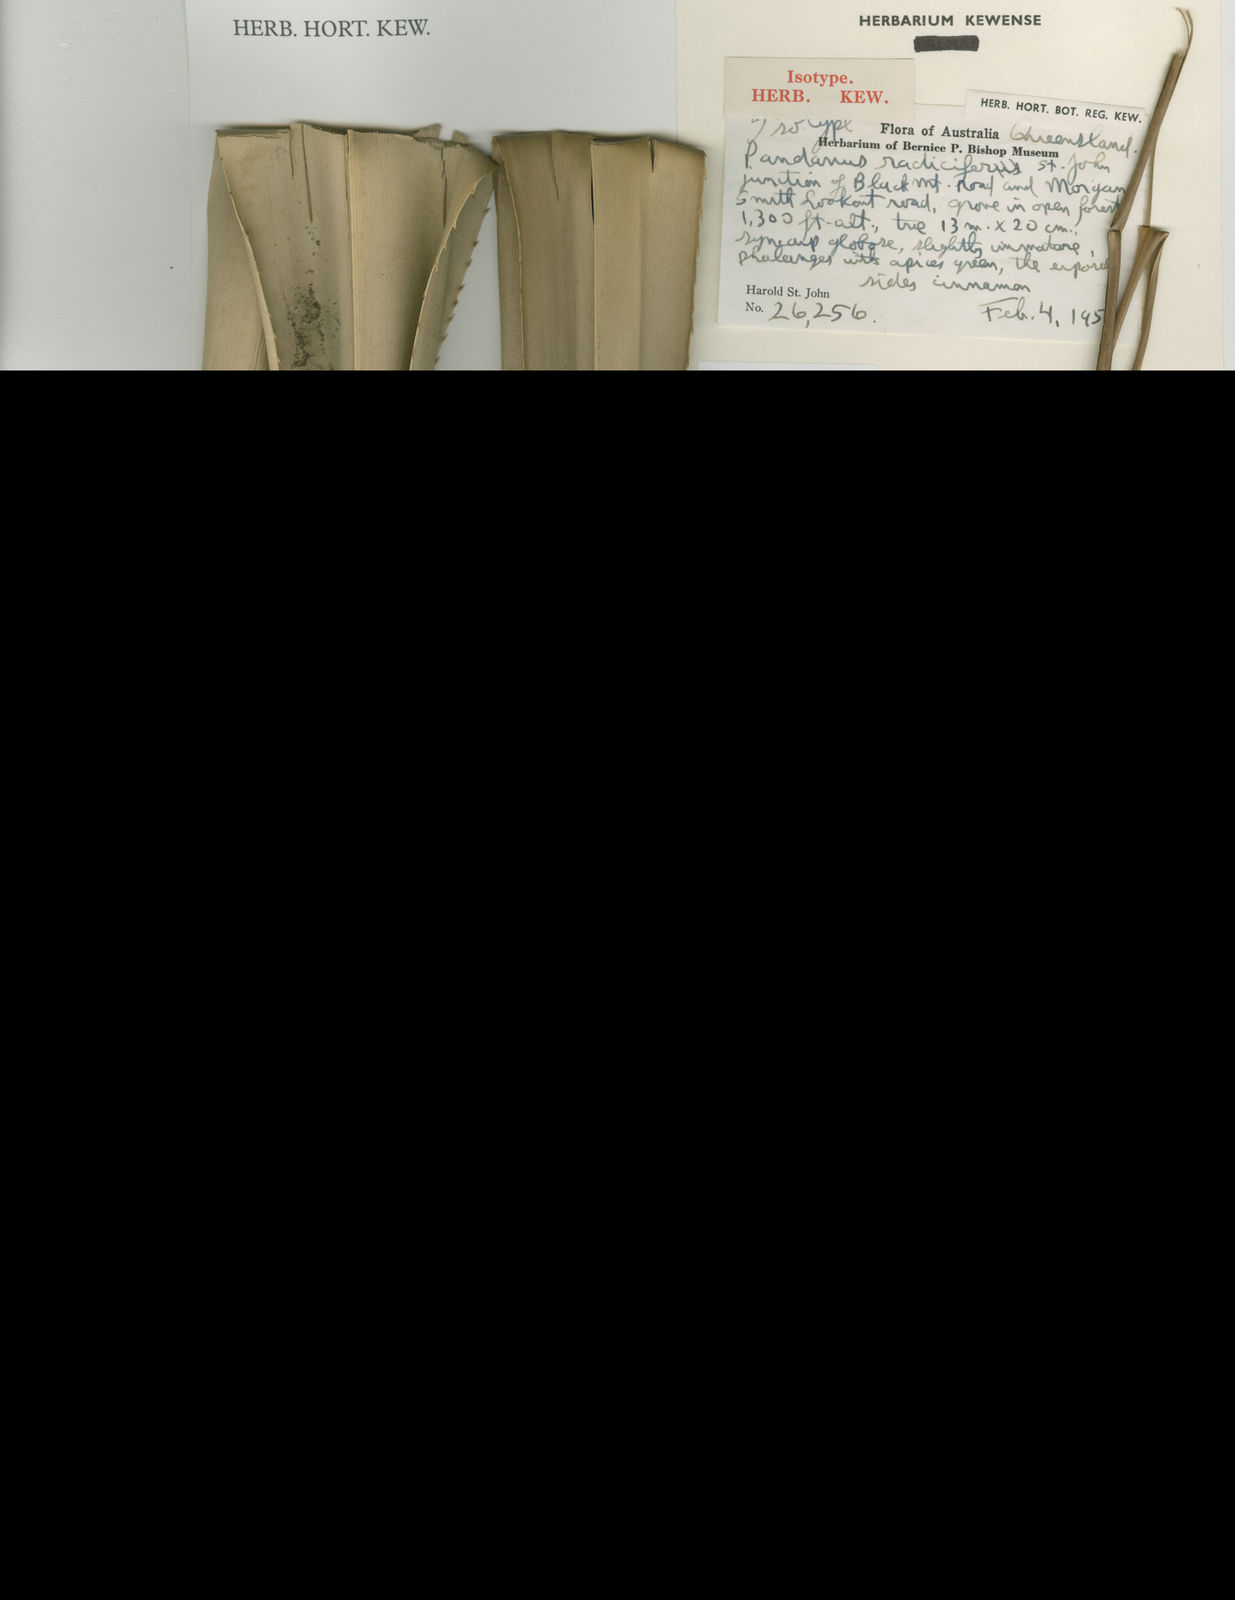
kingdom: Plantae
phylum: Tracheophyta
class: Liliopsida
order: Pandanales
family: Pandanaceae
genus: Pandanus
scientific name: Pandanus
